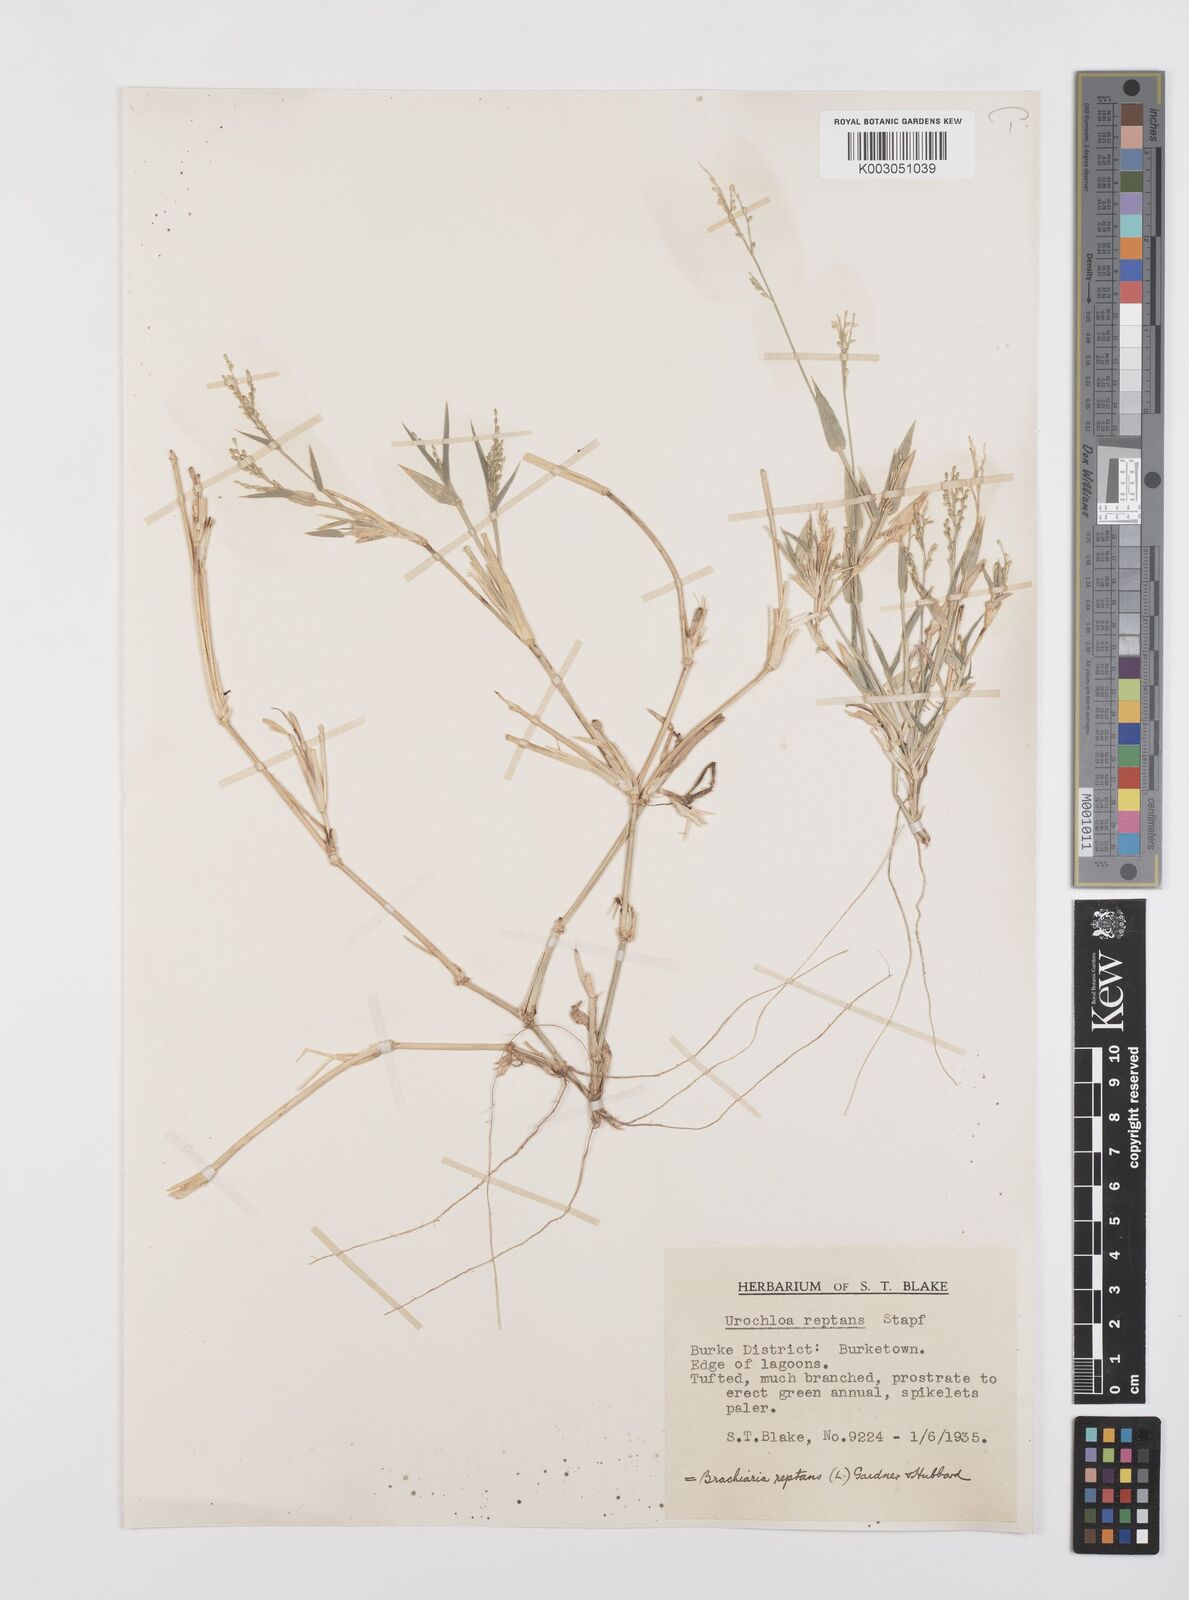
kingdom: Plantae
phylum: Tracheophyta
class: Liliopsida
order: Poales
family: Poaceae
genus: Urochloa
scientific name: Urochloa reptans
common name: Sprawling signalgrass
